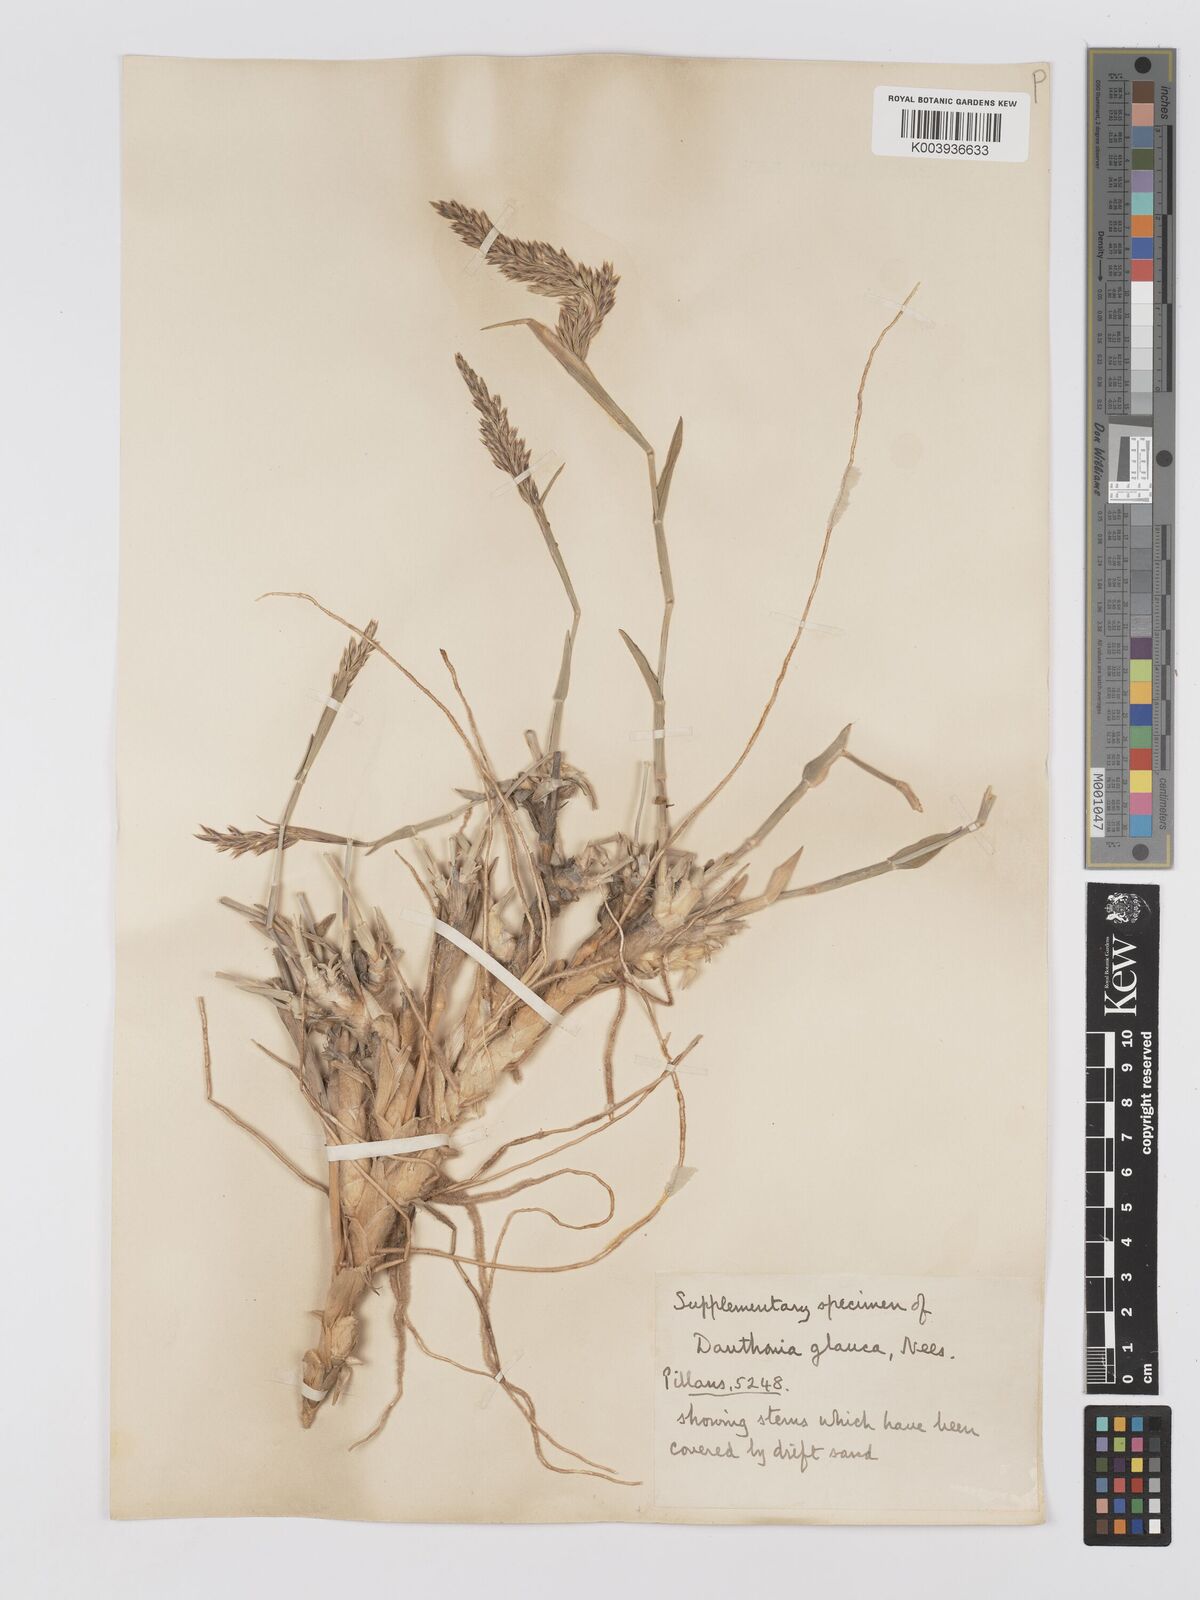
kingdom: Plantae
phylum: Tracheophyta
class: Liliopsida
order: Poales
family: Poaceae
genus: Centropodia
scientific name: Centropodia glauca
